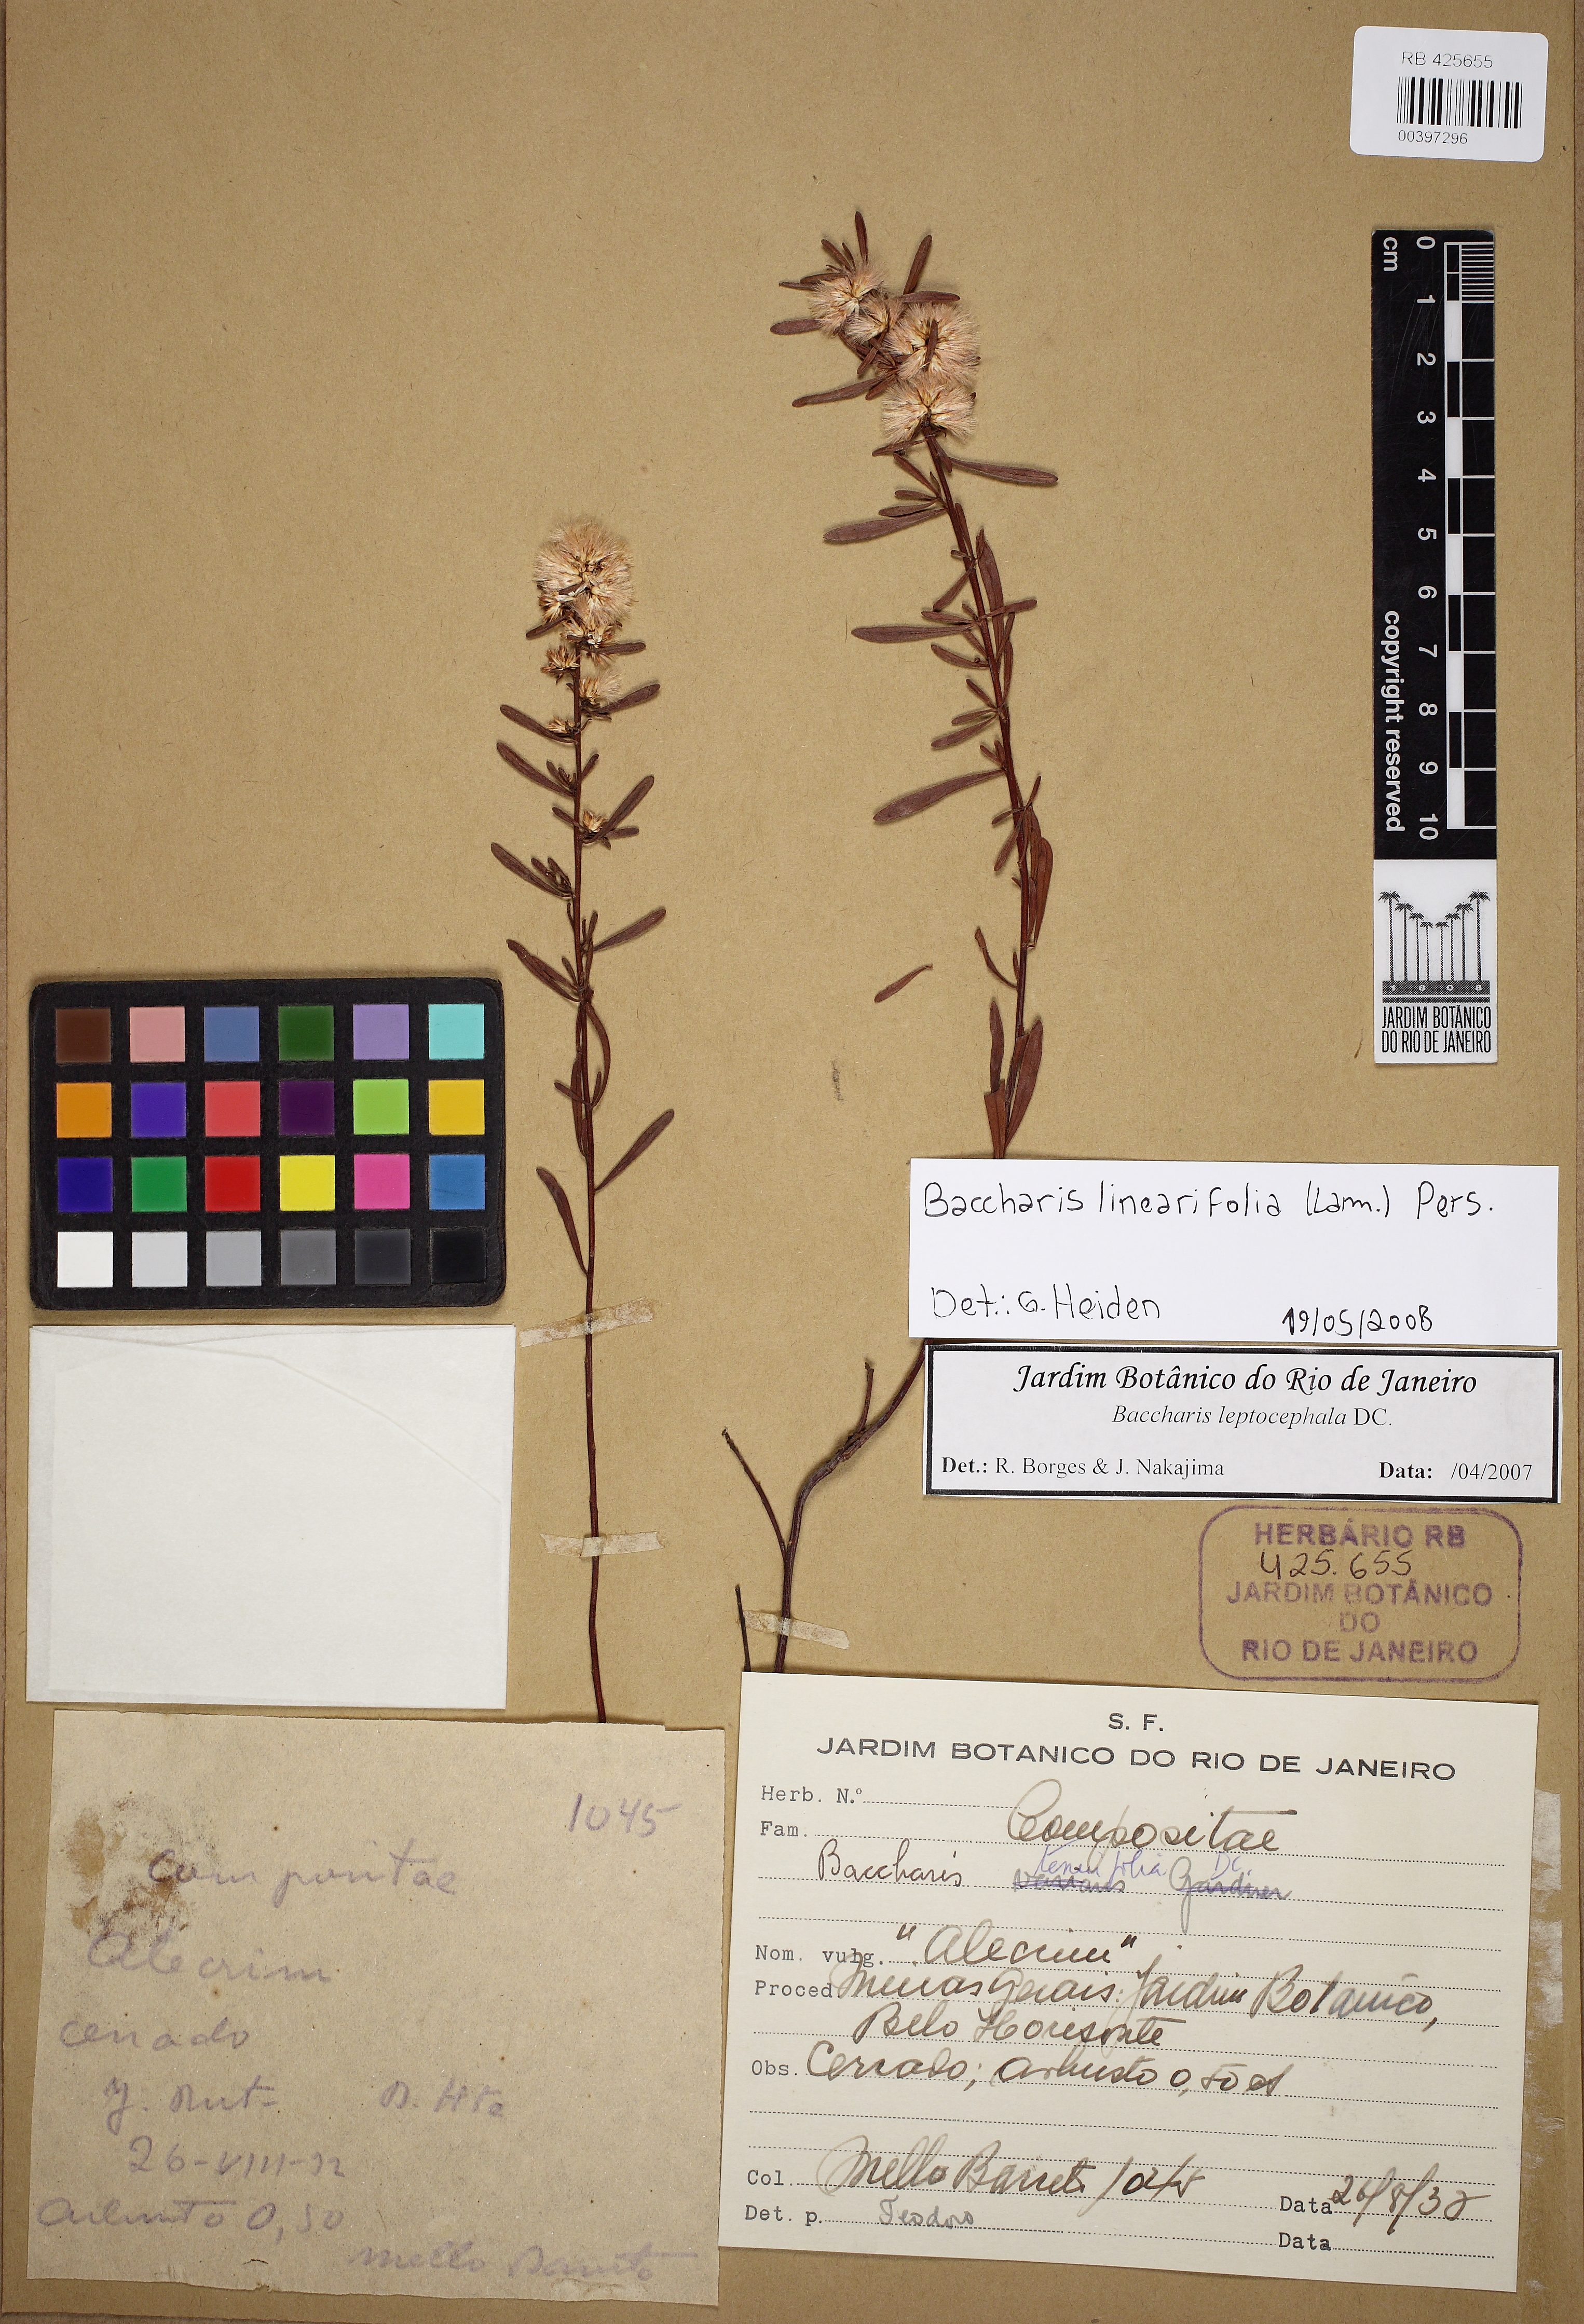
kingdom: Plantae
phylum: Tracheophyta
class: Magnoliopsida
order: Asterales
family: Asteraceae
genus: Baccharis
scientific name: Baccharis linearifolia
